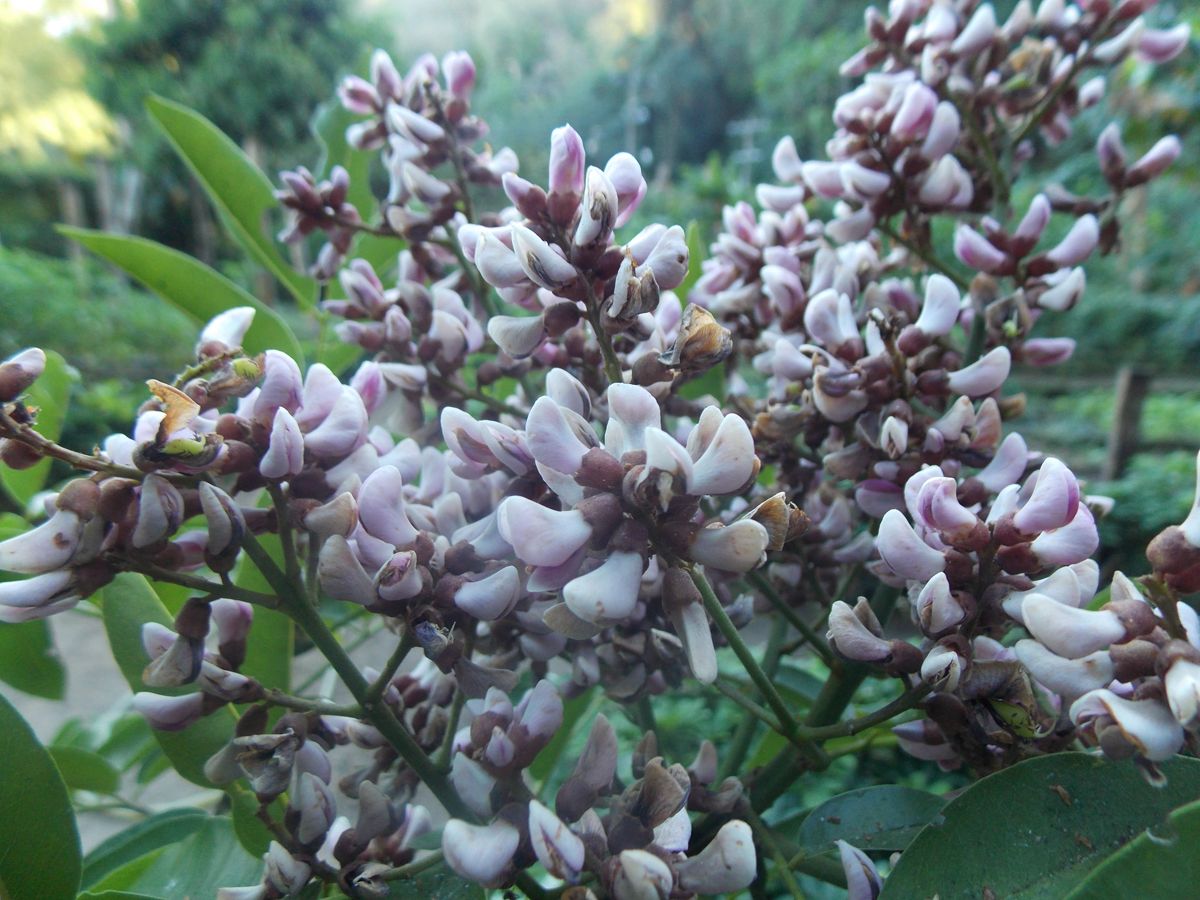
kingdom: Plantae
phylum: Tracheophyta
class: Magnoliopsida
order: Fabales
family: Fabaceae
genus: Andira
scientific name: Andira inermis
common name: Angelin
